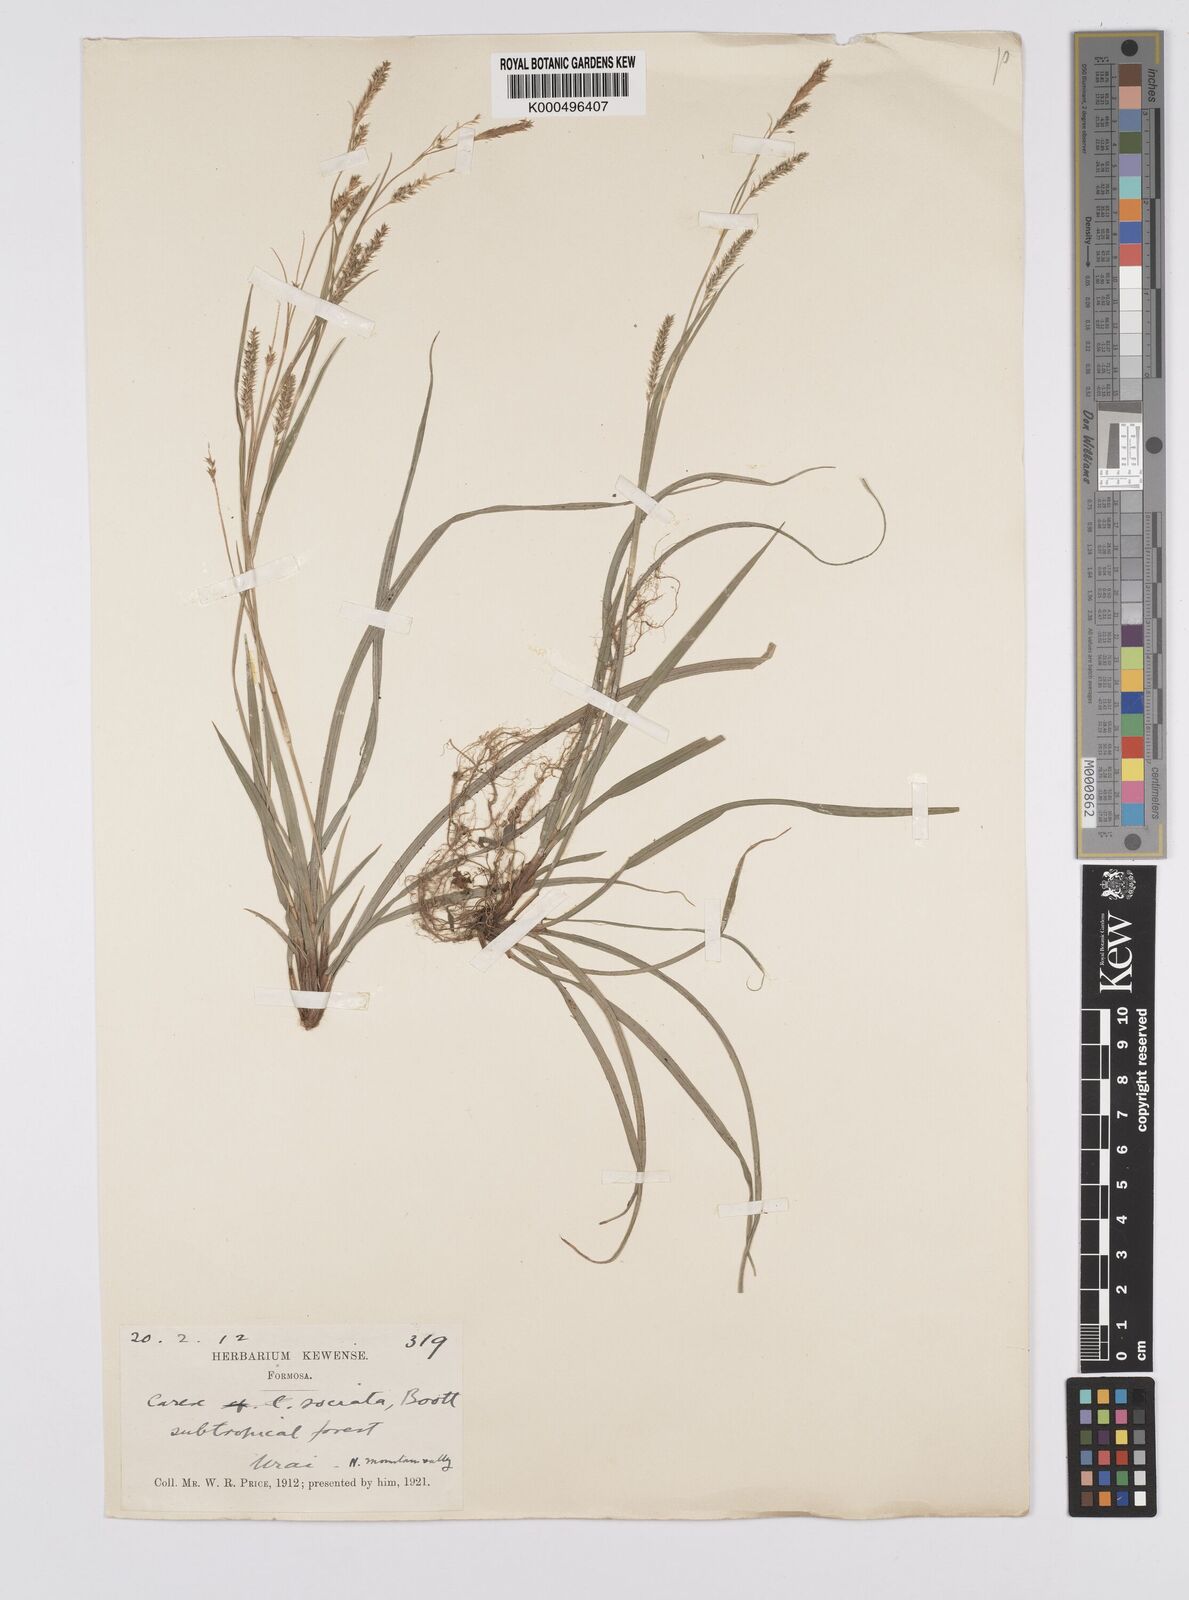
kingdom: Plantae
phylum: Tracheophyta
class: Liliopsida
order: Poales
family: Cyperaceae
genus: Carex
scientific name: Carex chinensis
